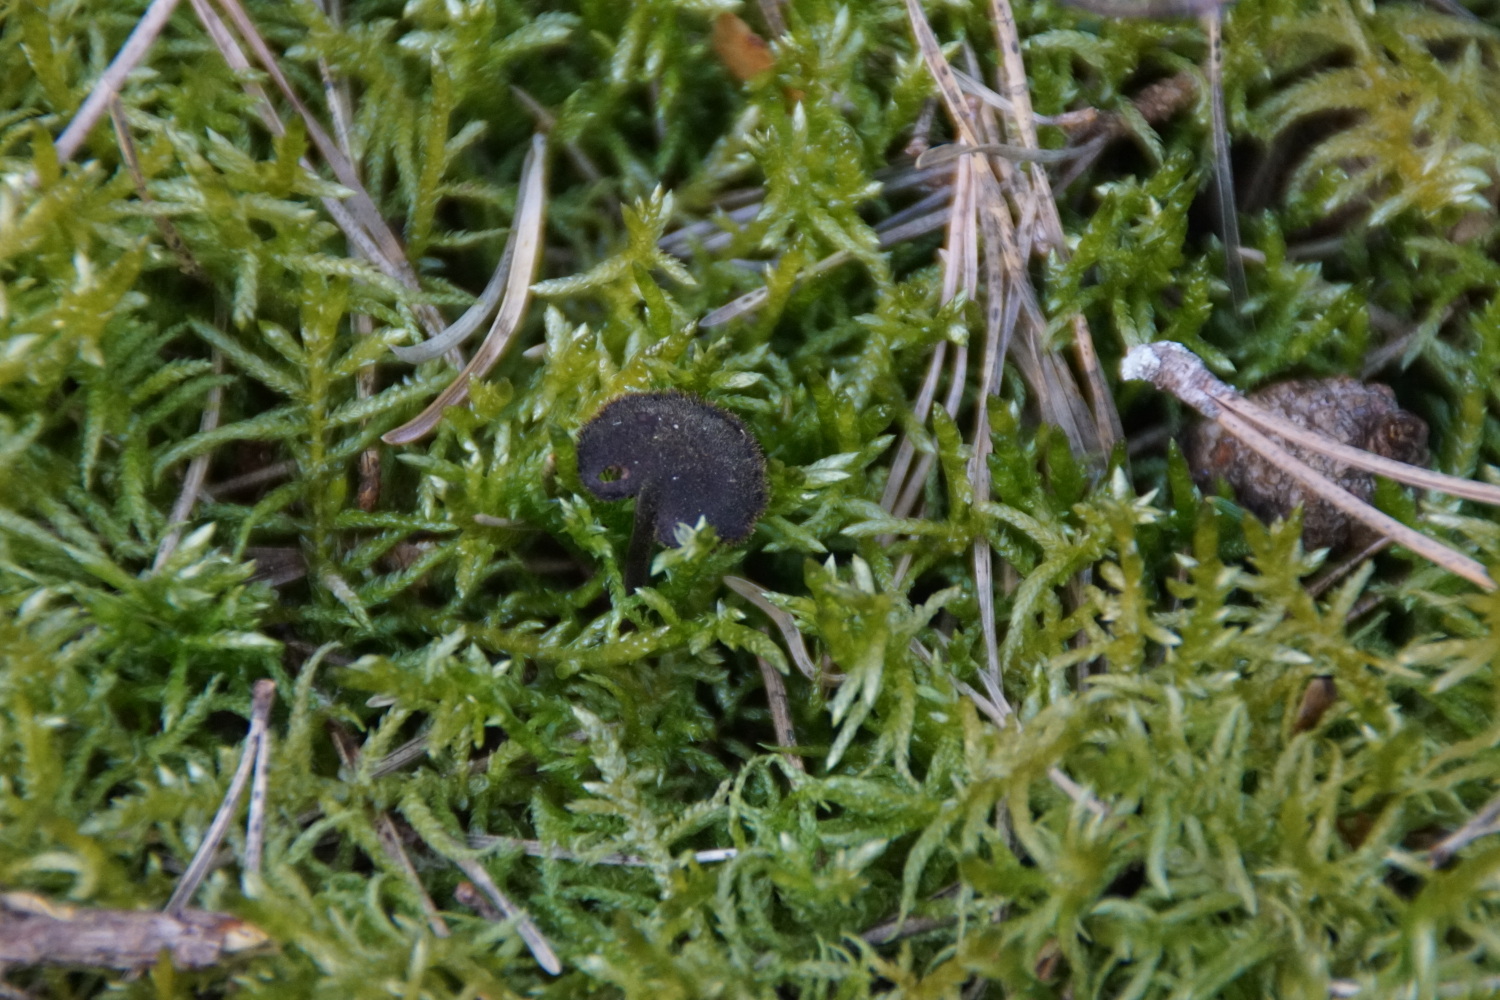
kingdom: Fungi
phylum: Basidiomycota
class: Agaricomycetes
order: Russulales
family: Auriscalpiaceae
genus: Auriscalpium
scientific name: Auriscalpium vulgare
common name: koglepigsvamp
